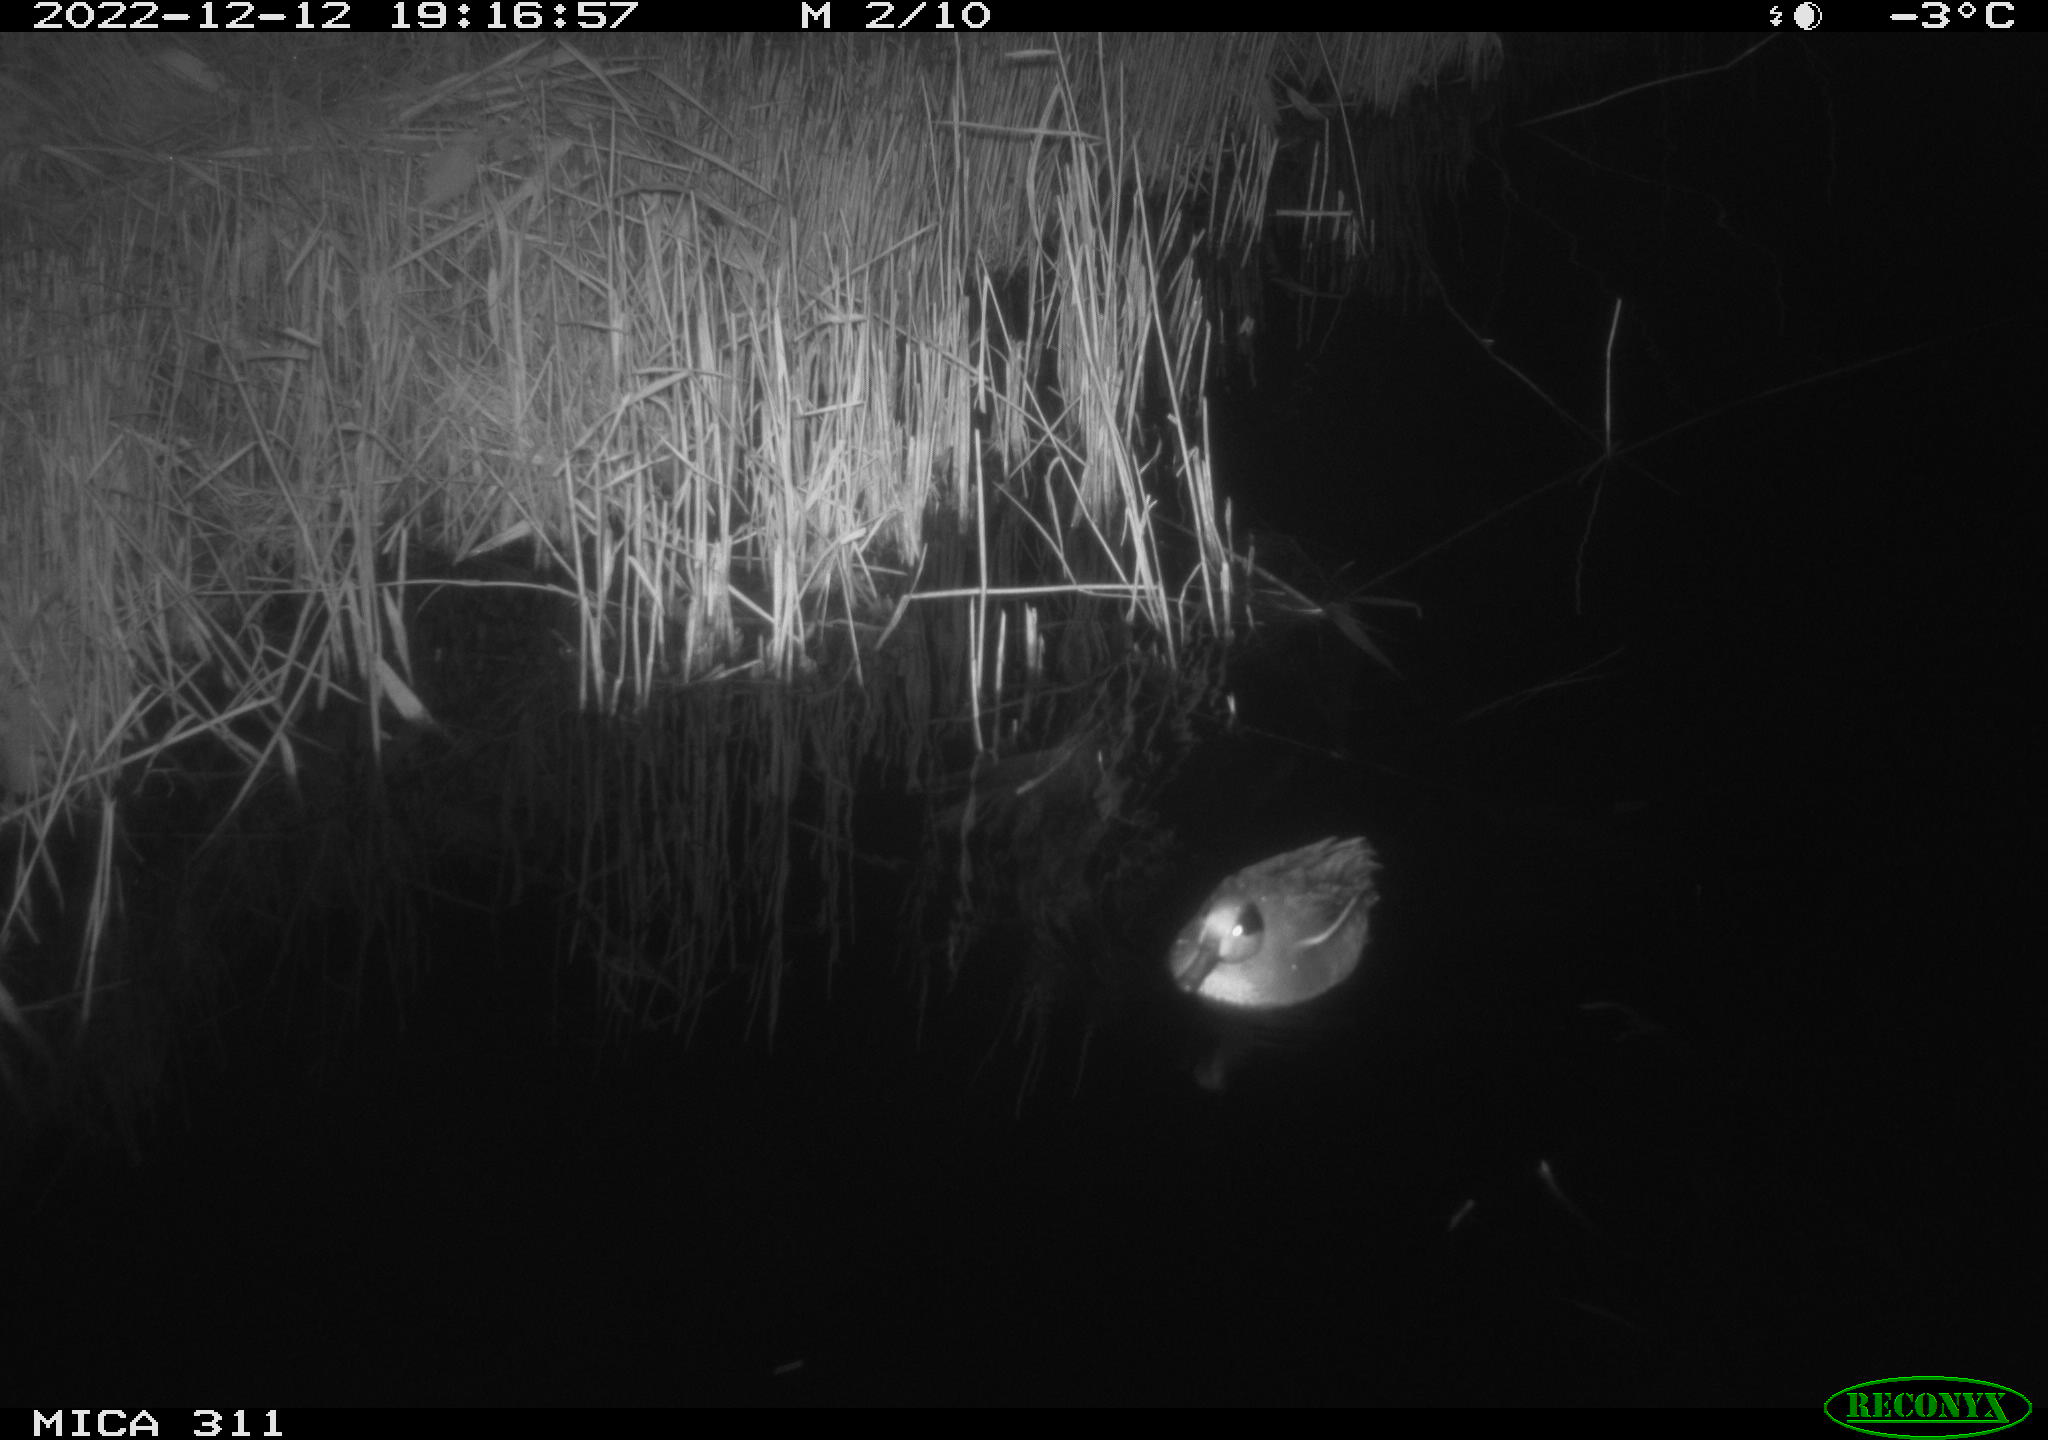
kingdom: Animalia
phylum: Chordata
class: Aves
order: Anseriformes
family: Anatidae
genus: Anas
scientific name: Anas
